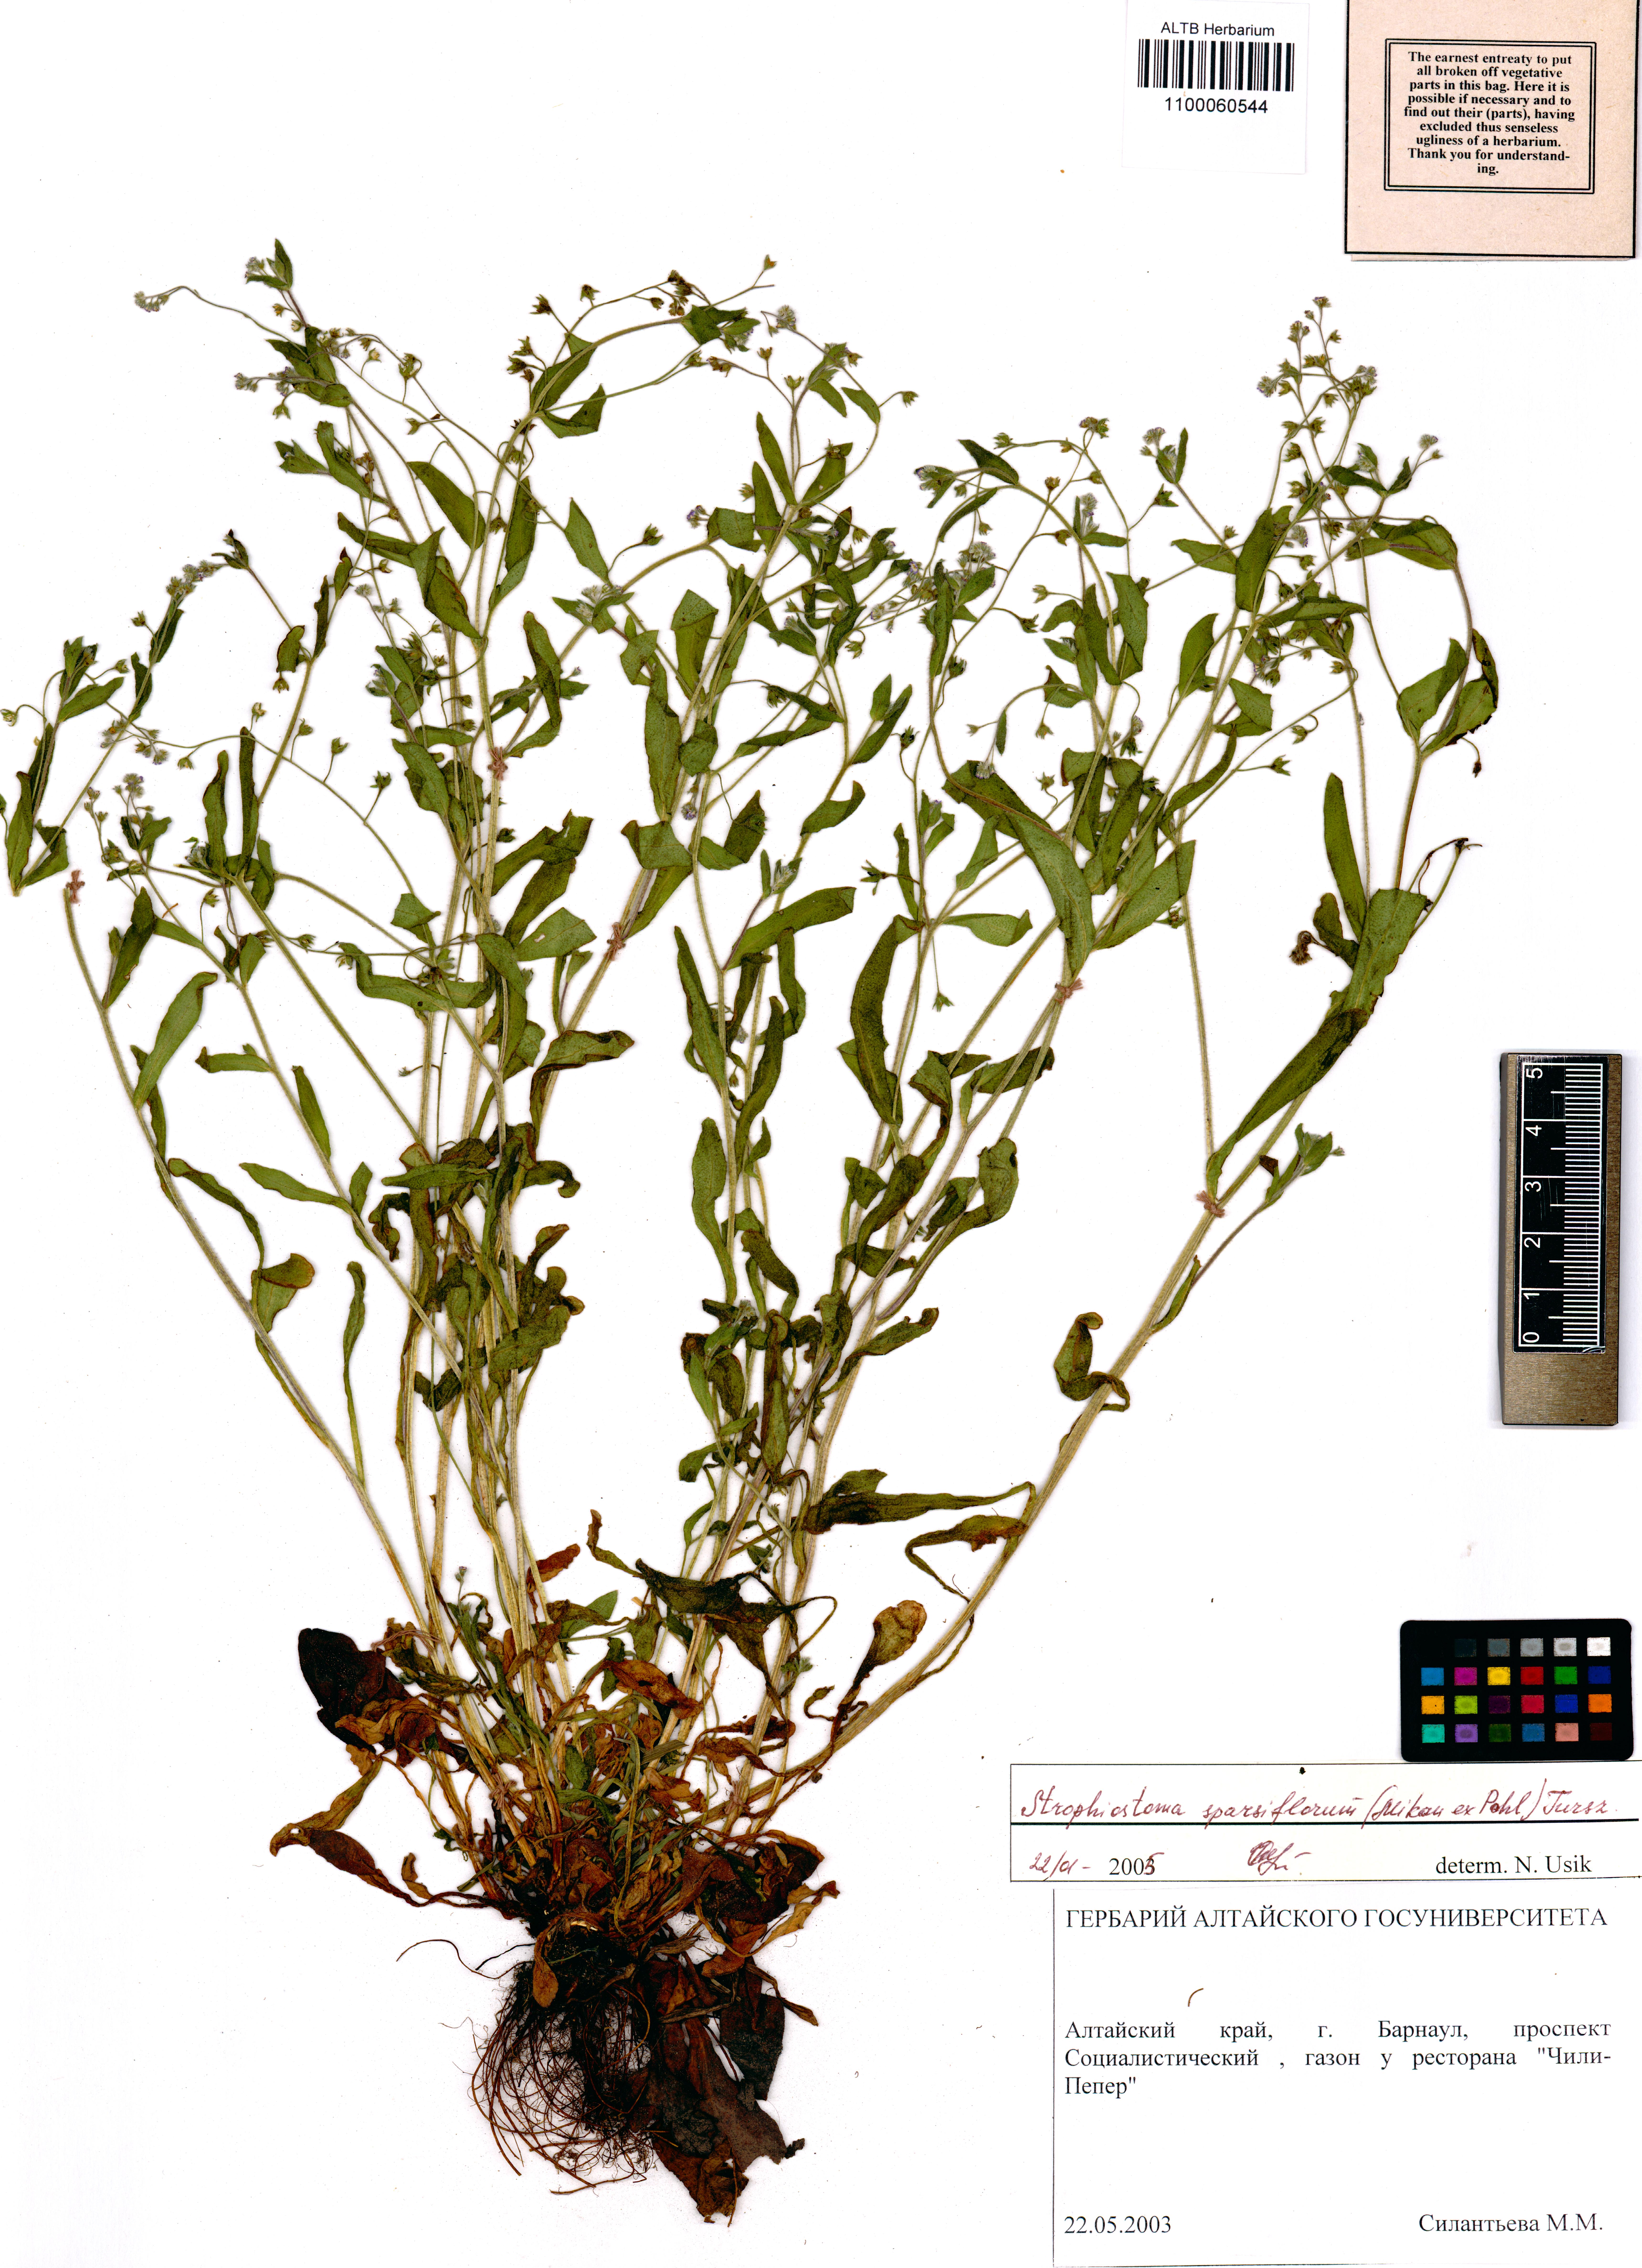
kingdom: Plantae
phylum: Tracheophyta
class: Magnoliopsida
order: Boraginales
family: Boraginaceae
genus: Myosotis
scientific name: Myosotis sparsiflora
